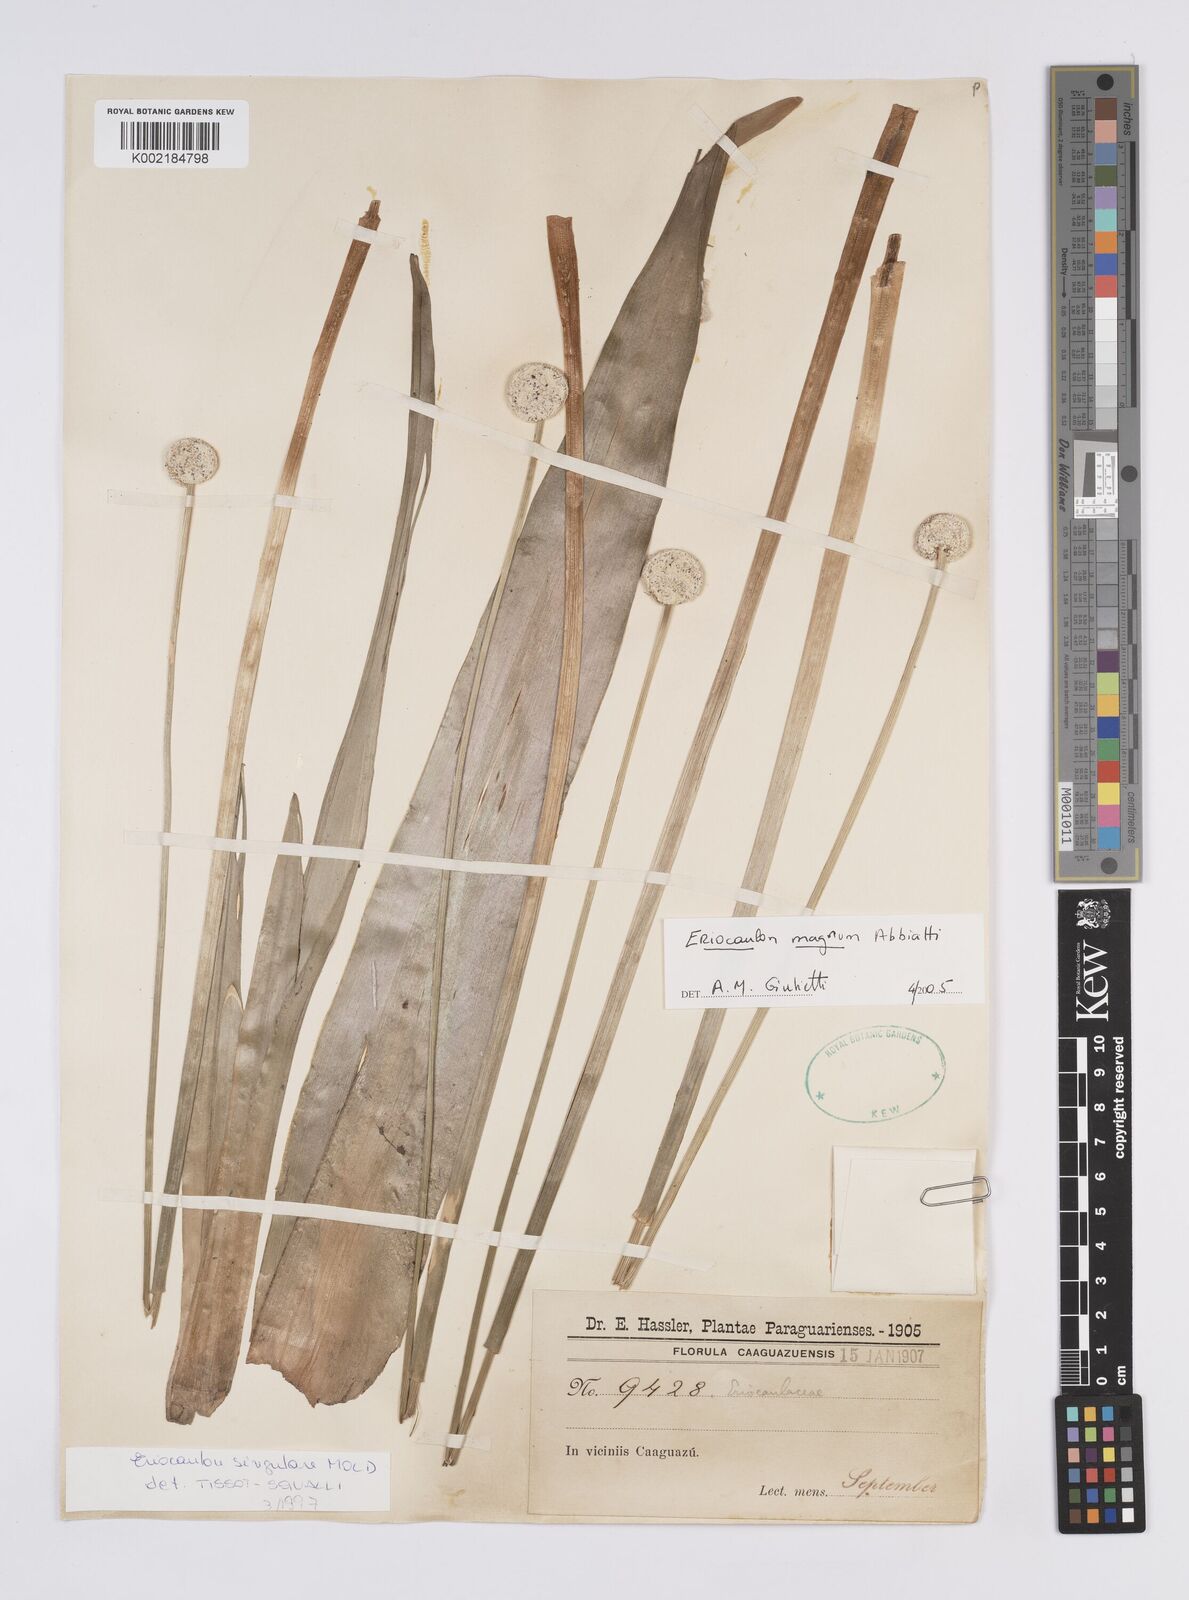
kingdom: Plantae
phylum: Tracheophyta
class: Liliopsida
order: Poales
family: Eriocaulaceae
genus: Eriocaulon
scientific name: Eriocaulon magnum
